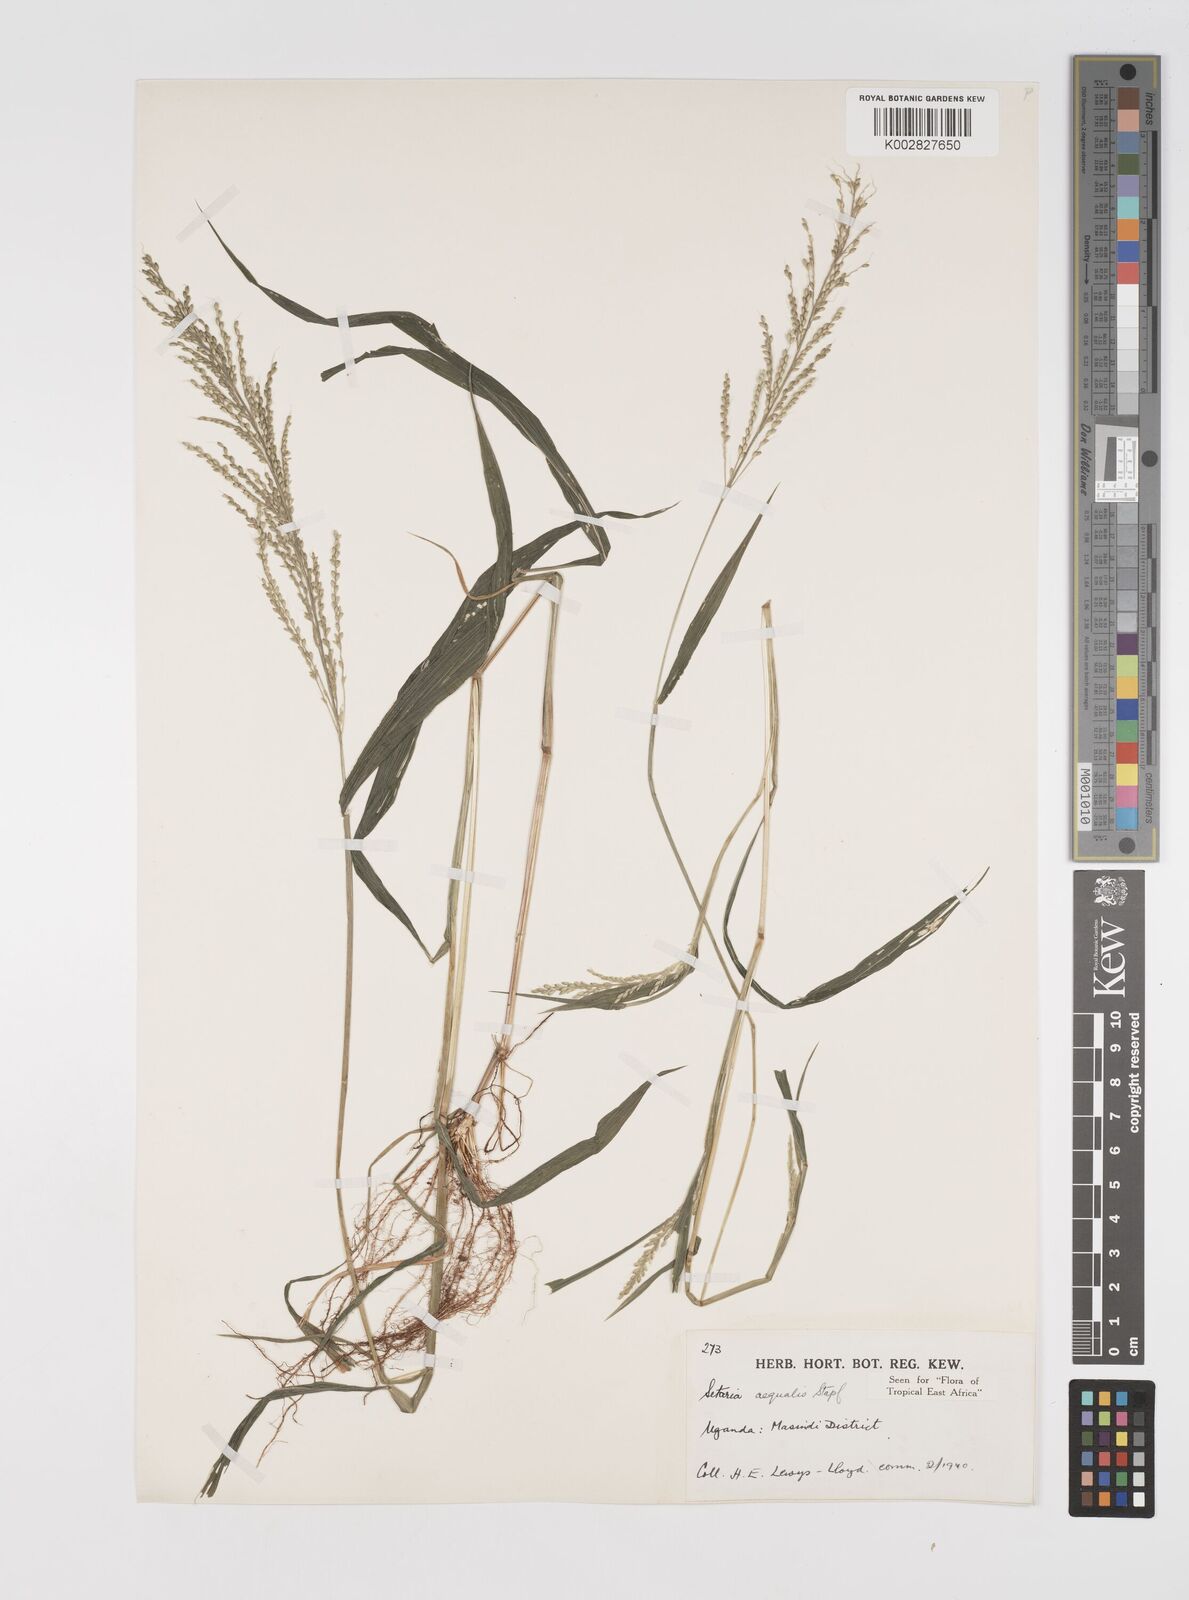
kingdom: Plantae
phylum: Tracheophyta
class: Liliopsida
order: Poales
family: Poaceae
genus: Setaria
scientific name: Setaria homonyma
